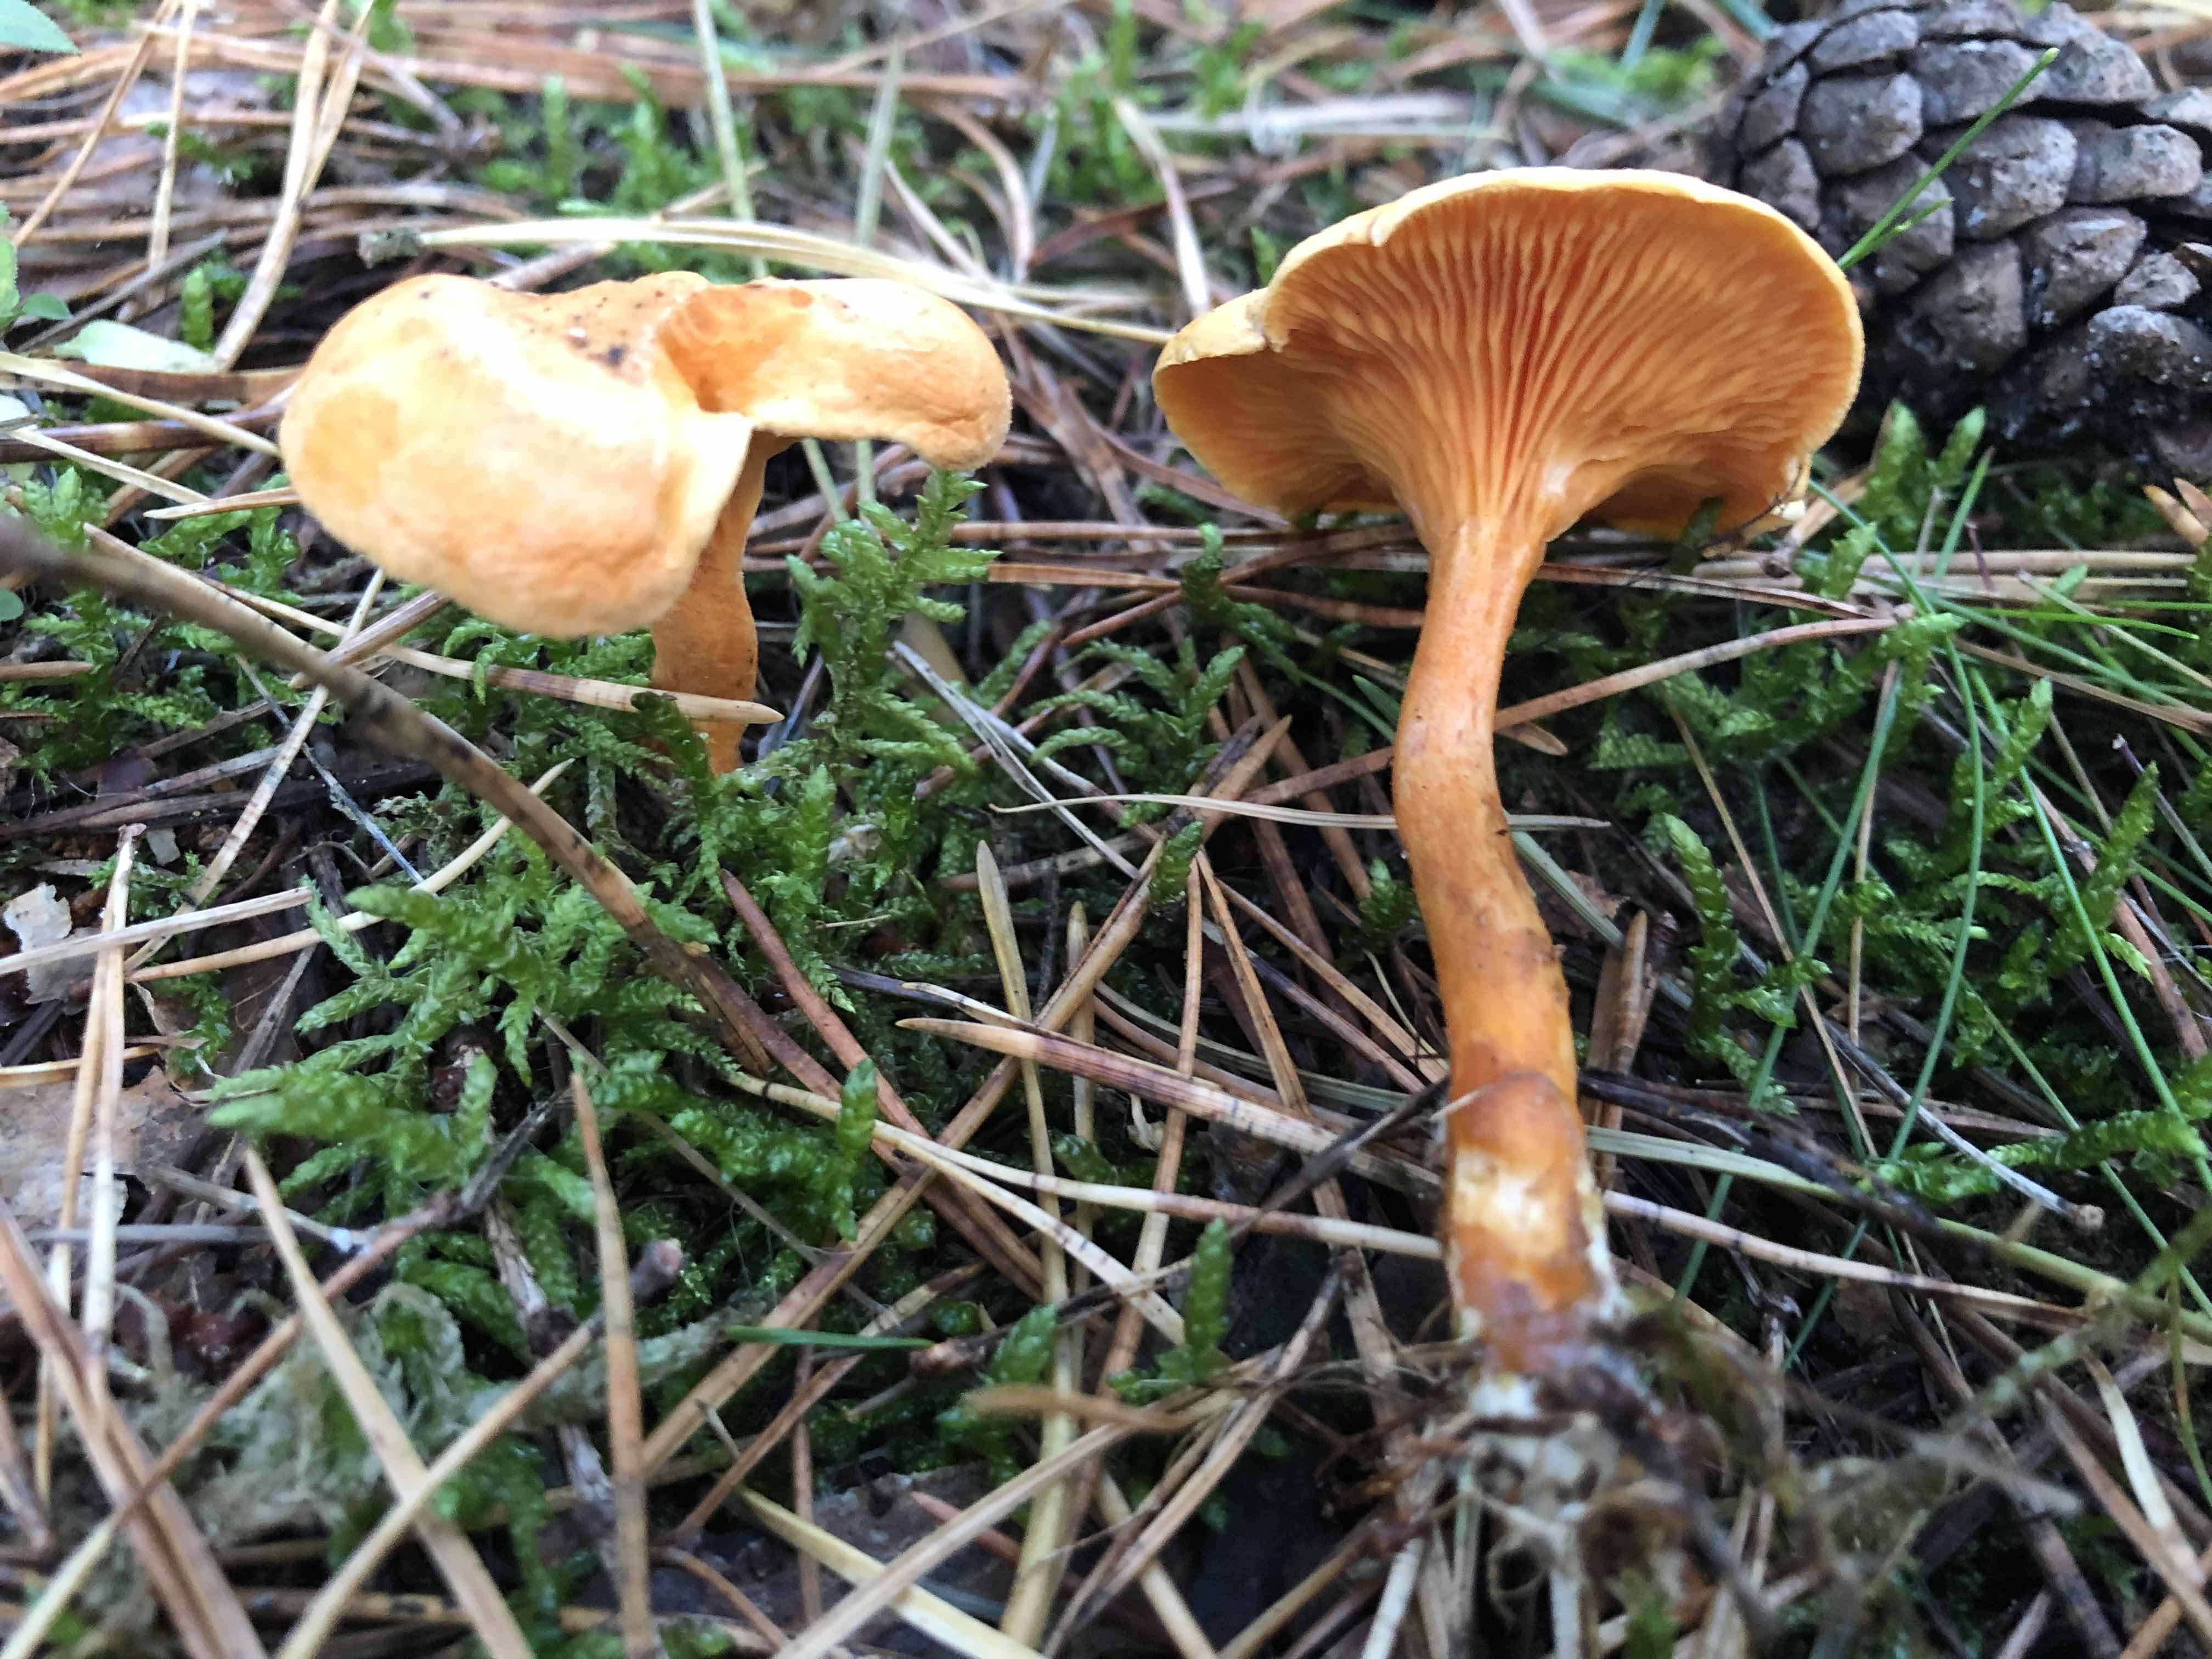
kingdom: Fungi
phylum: Basidiomycota
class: Agaricomycetes
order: Boletales
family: Hygrophoropsidaceae
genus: Hygrophoropsis
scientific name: Hygrophoropsis aurantiaca
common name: almindelig orangekantarel
